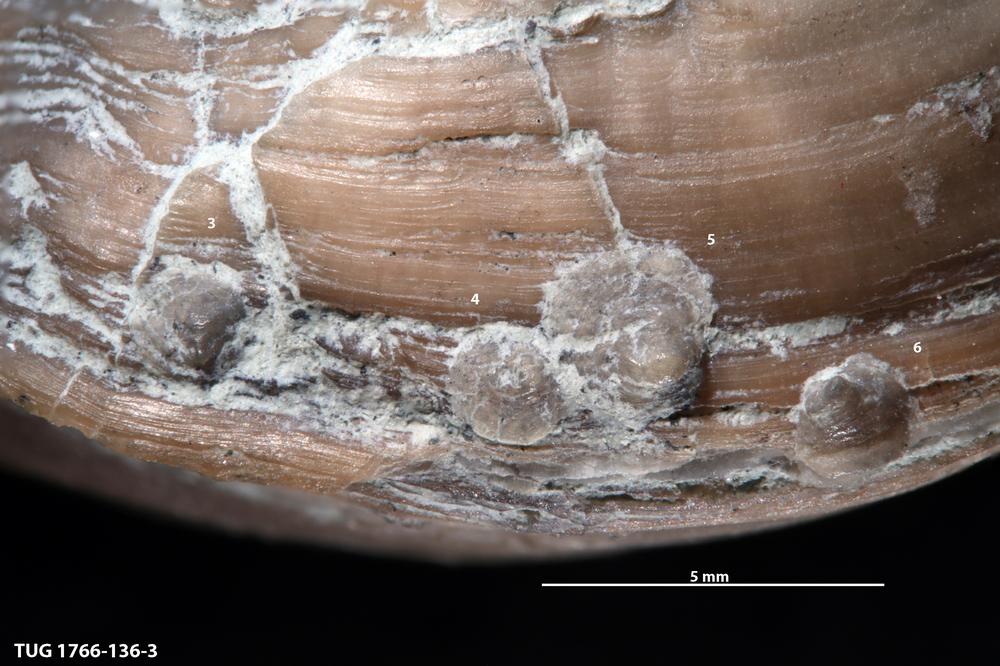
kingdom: Animalia
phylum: Brachiopoda
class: Craniata
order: Craniida
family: Craniidae
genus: Petrocrania
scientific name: Petrocrania
